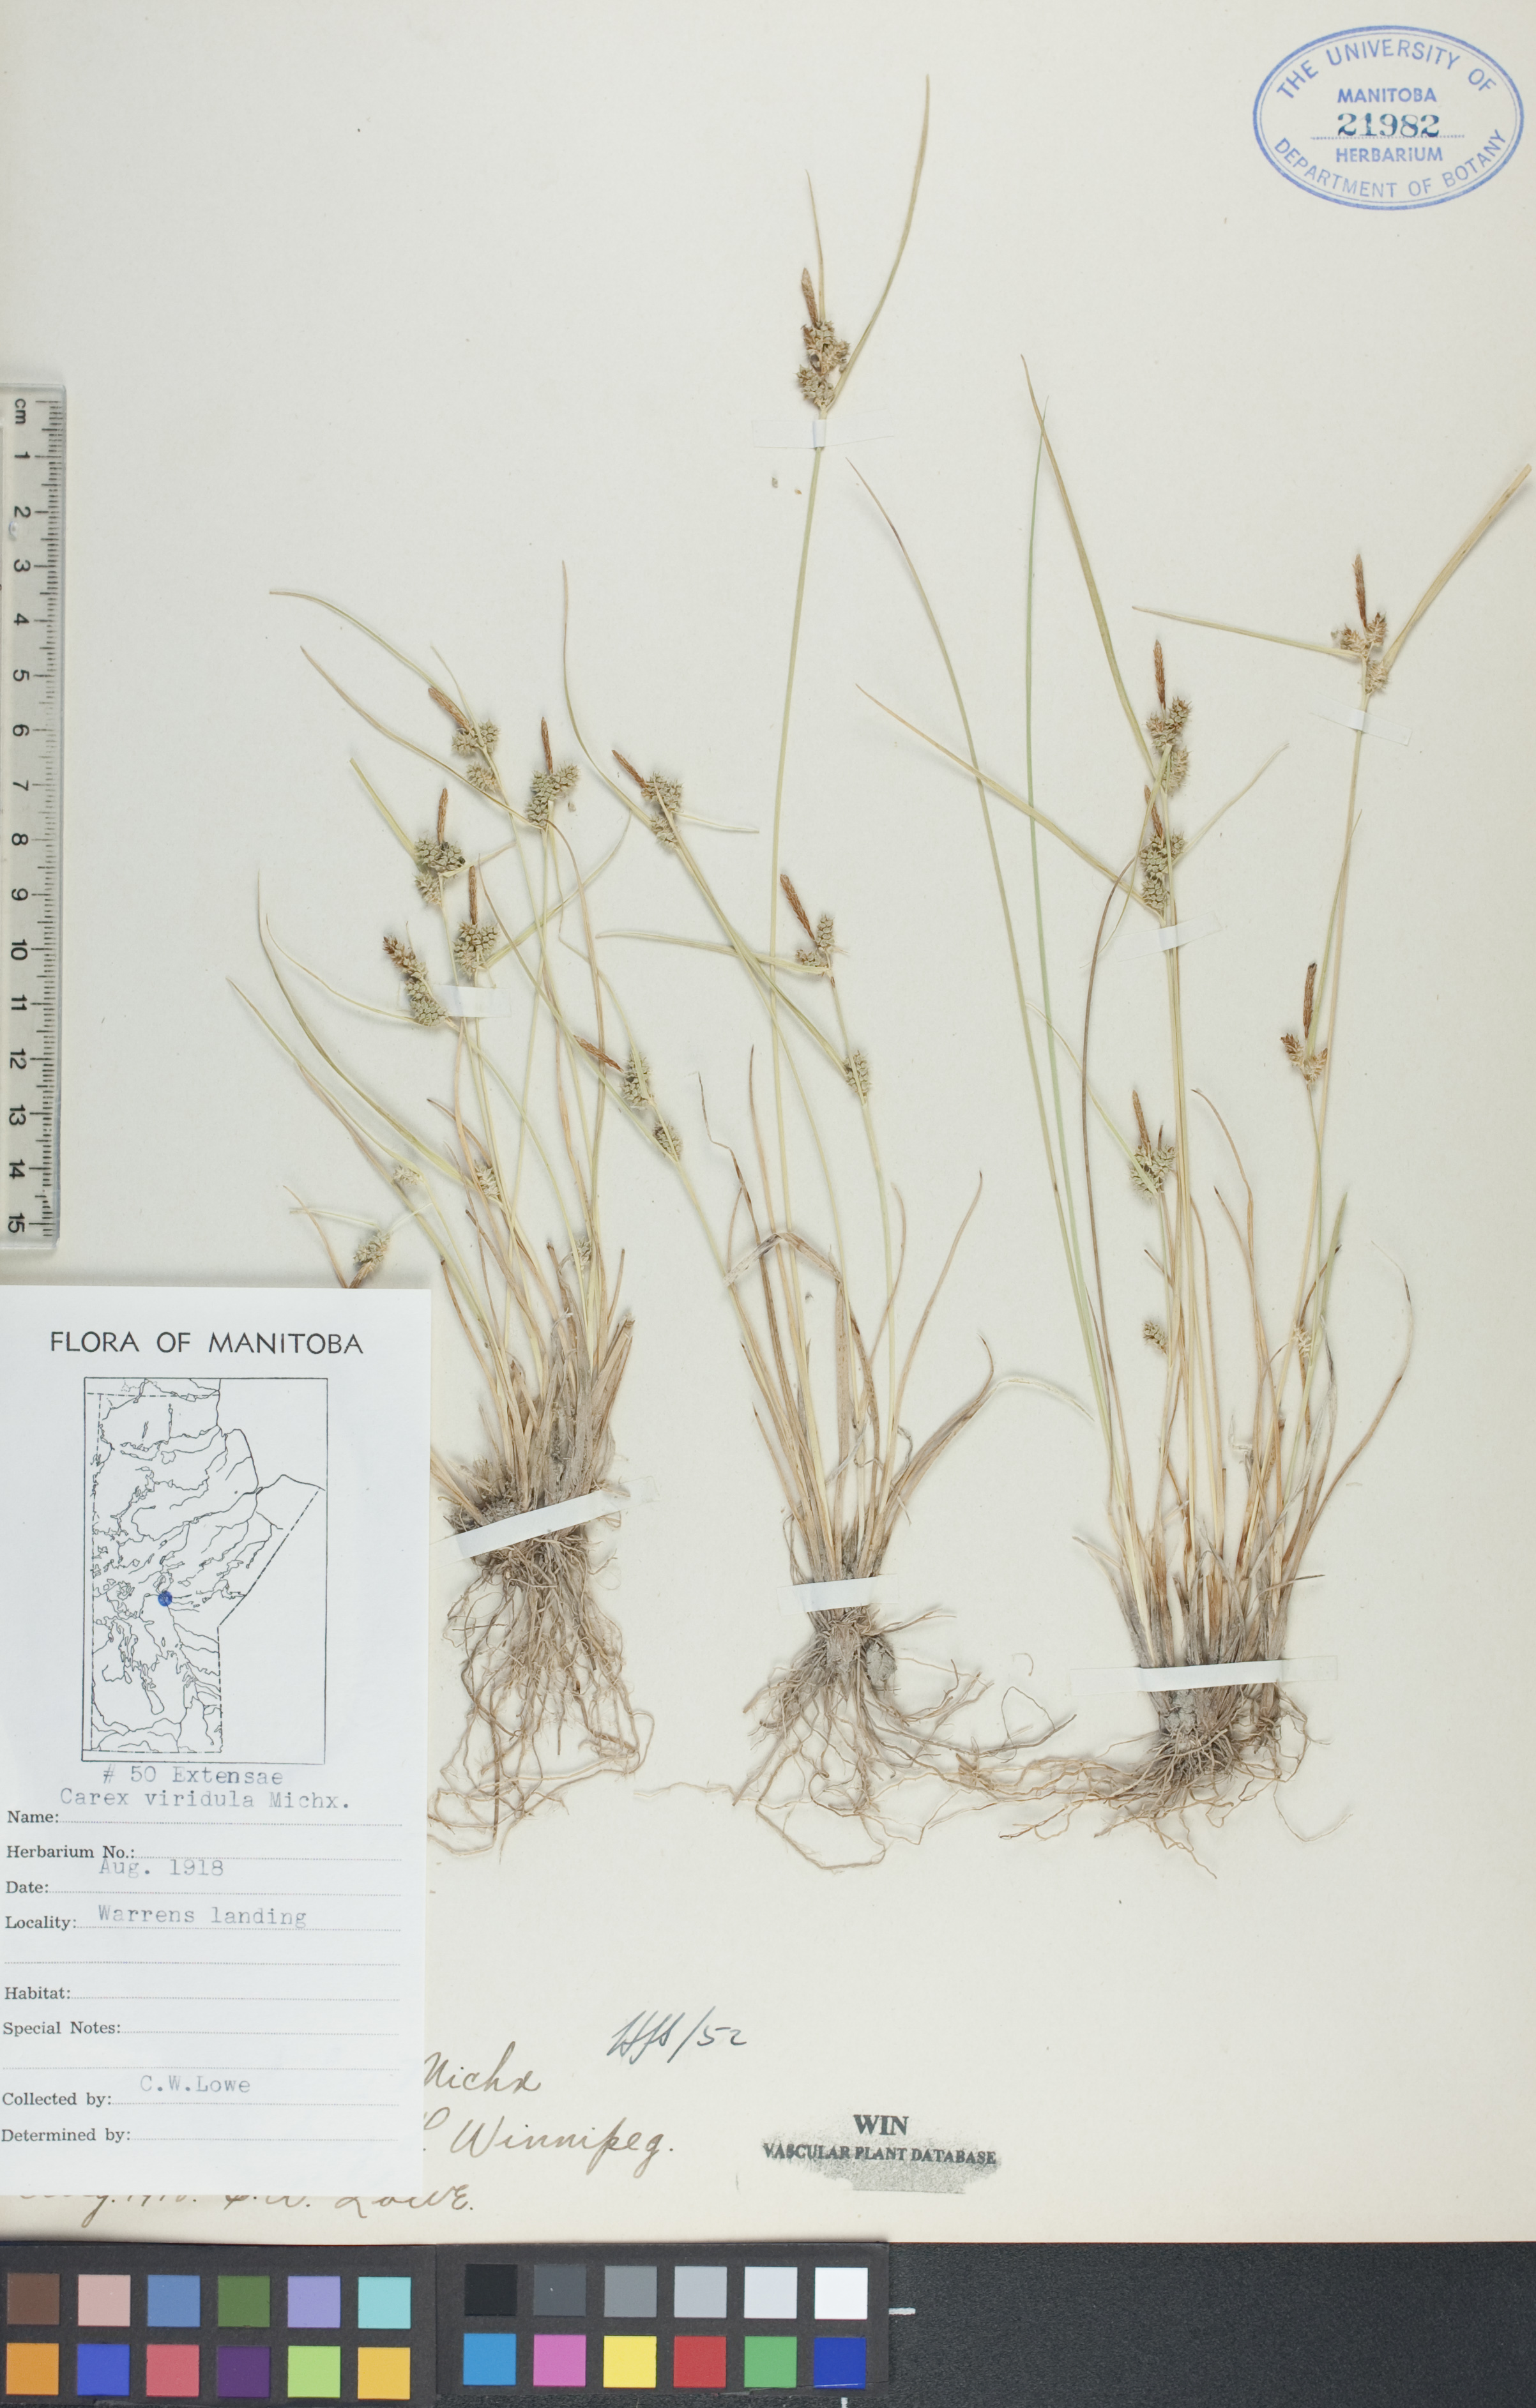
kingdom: Plantae
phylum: Tracheophyta
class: Liliopsida
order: Poales
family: Cyperaceae
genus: Carex
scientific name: Carex oederi
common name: Common & small-fruited yellow-sedge
